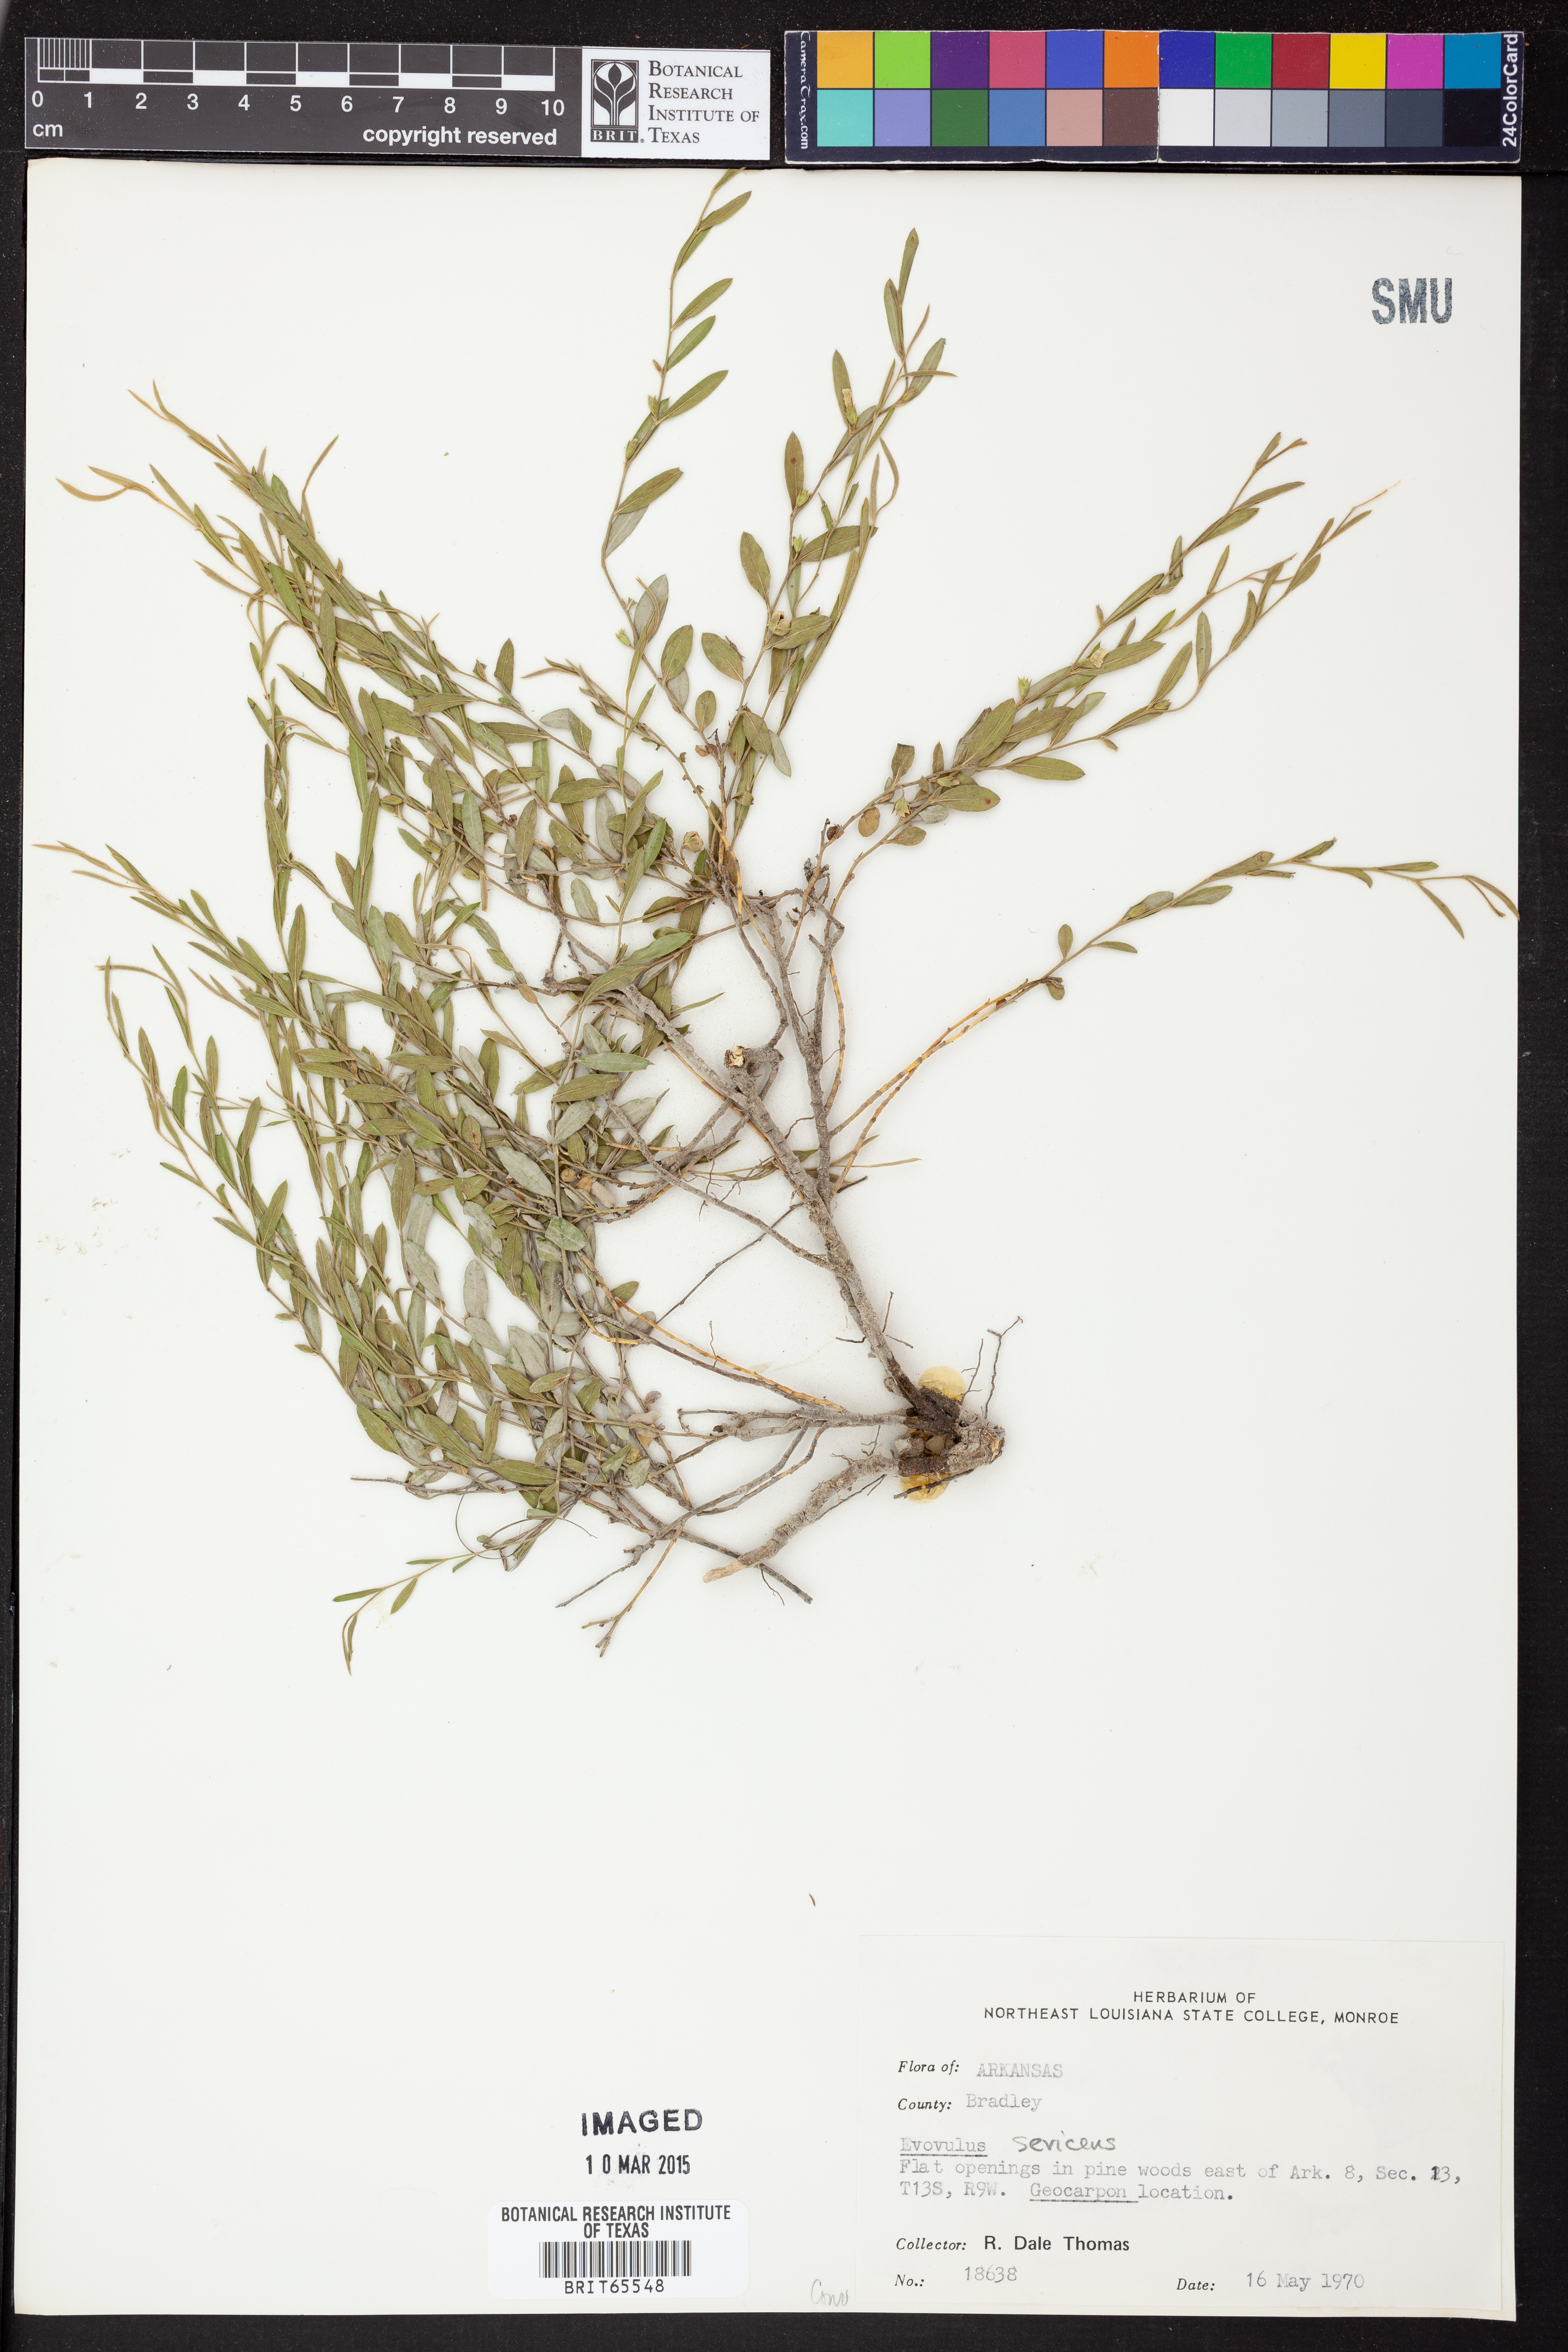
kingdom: Plantae
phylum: Tracheophyta
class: Magnoliopsida
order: Solanales
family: Convolvulaceae
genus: Evolvulus
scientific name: Evolvulus sericeus
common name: Blue dots
